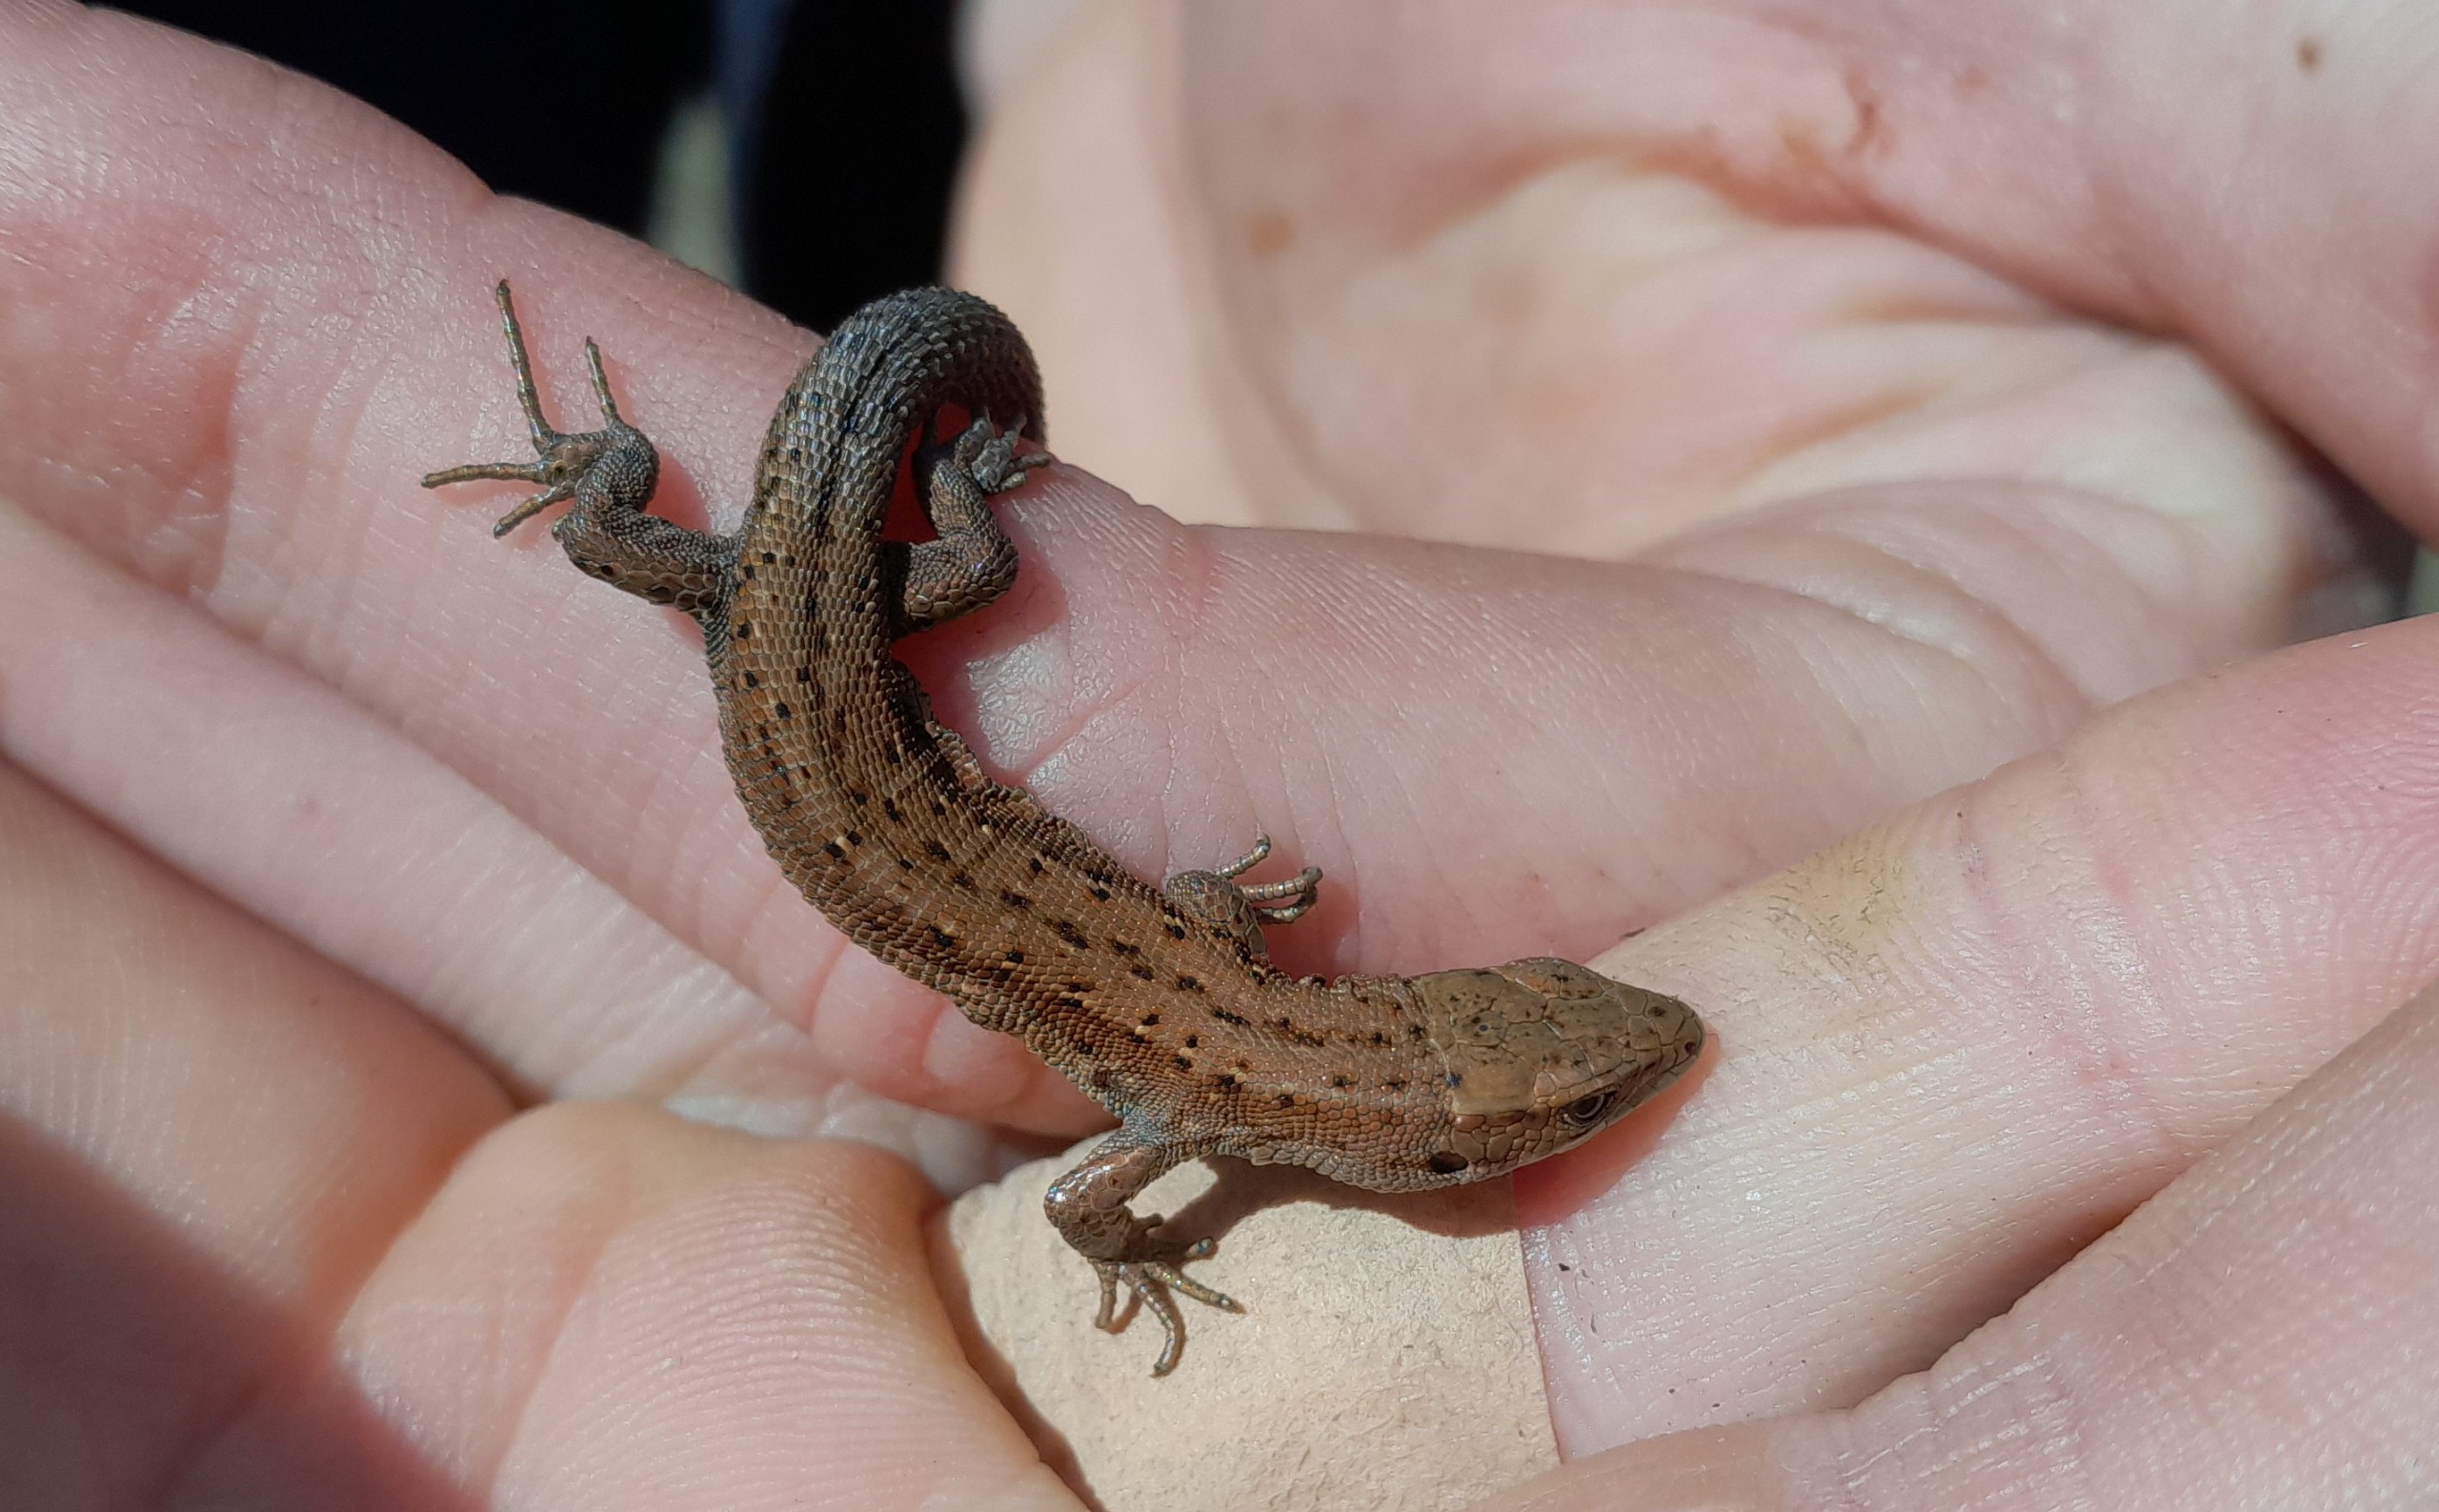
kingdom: Animalia
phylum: Chordata
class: Squamata
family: Lacertidae
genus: Zootoca
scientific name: Zootoca vivipara
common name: Skovfirben
